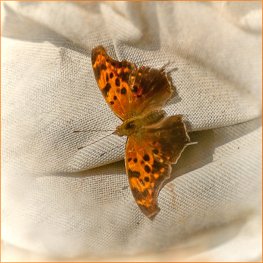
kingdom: Animalia
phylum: Arthropoda
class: Insecta
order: Lepidoptera
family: Nymphalidae
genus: Polygonia
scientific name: Polygonia interrogationis
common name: Question Mark
